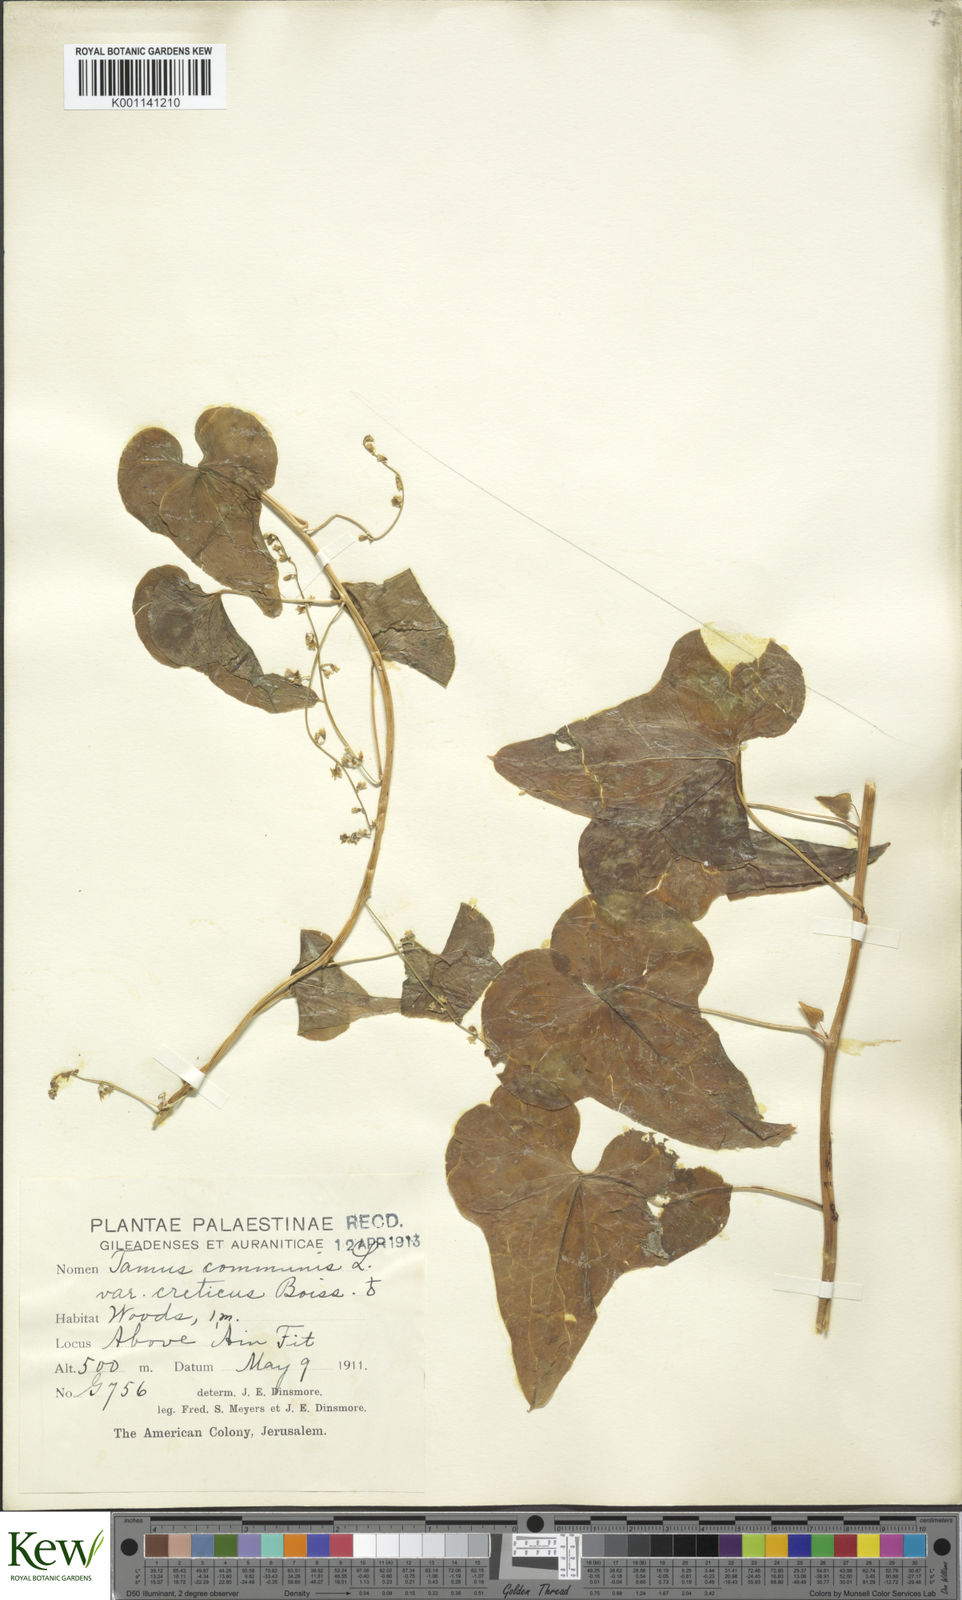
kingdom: Plantae
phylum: Tracheophyta
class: Liliopsida
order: Dioscoreales
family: Dioscoreaceae
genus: Dioscorea
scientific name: Dioscorea communis
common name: Black-bindweed
